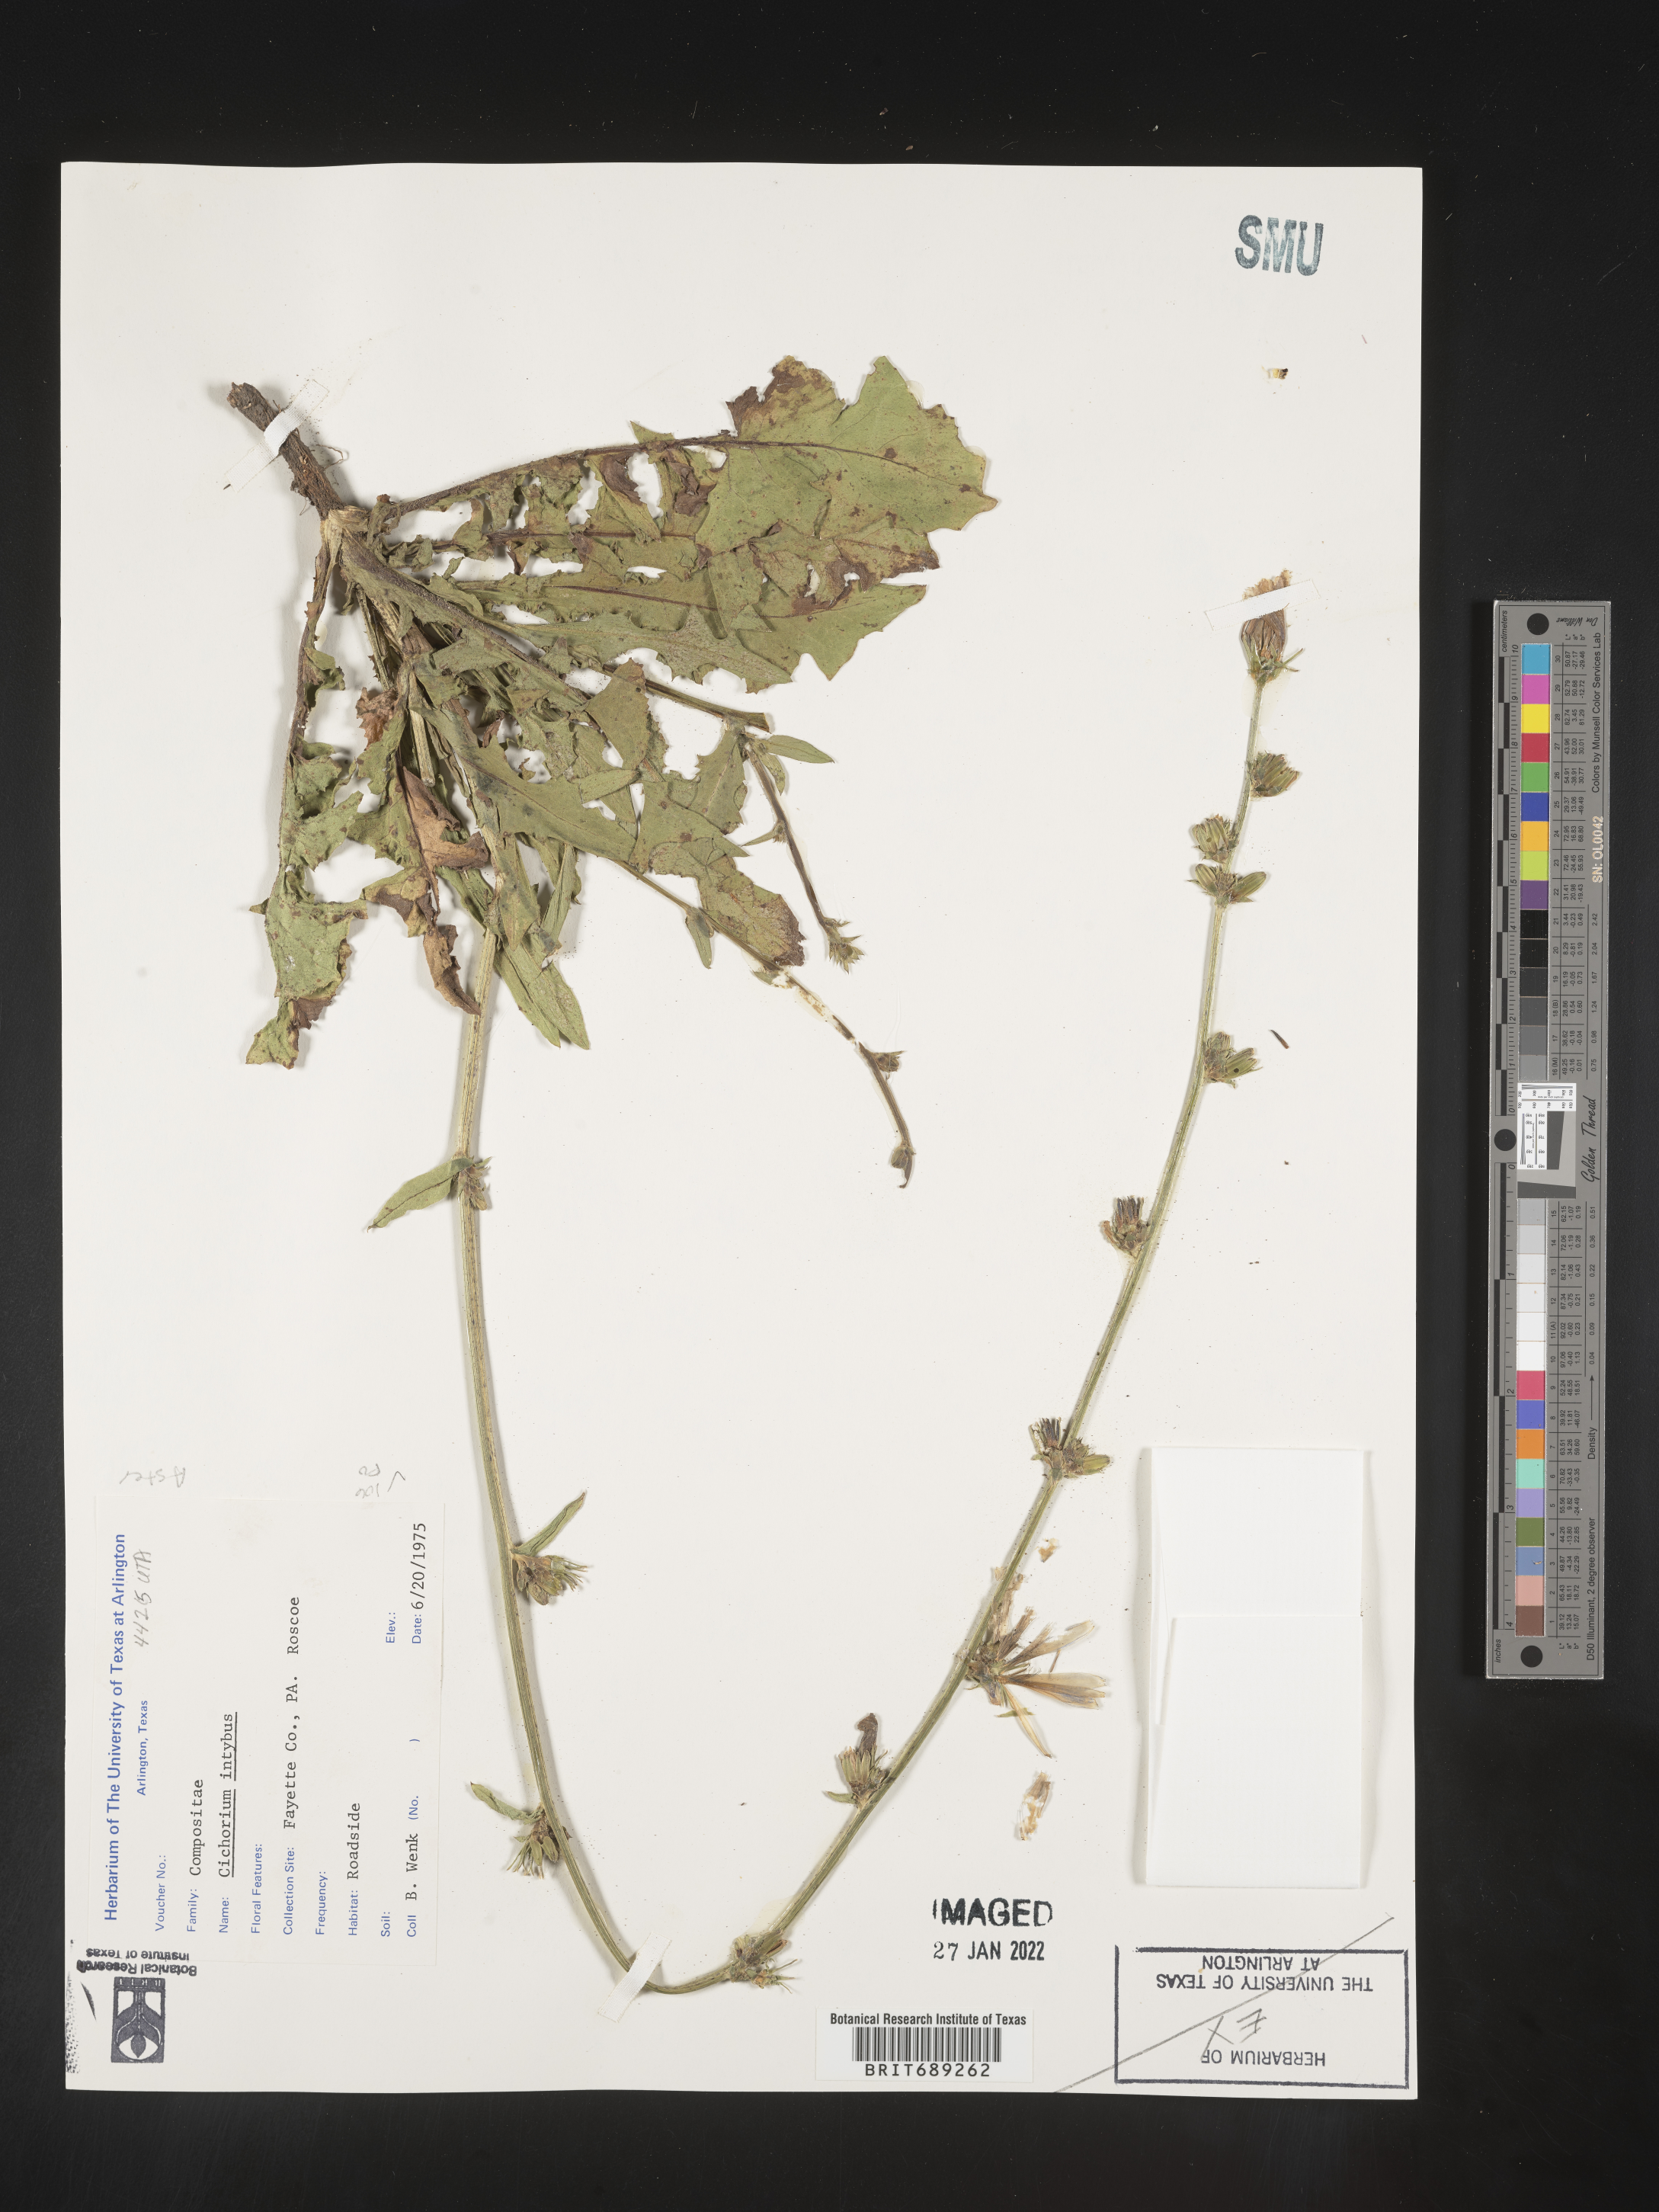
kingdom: Plantae
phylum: Tracheophyta
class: Magnoliopsida
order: Asterales
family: Asteraceae
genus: Cichorium
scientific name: Cichorium intybus
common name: Chicory
